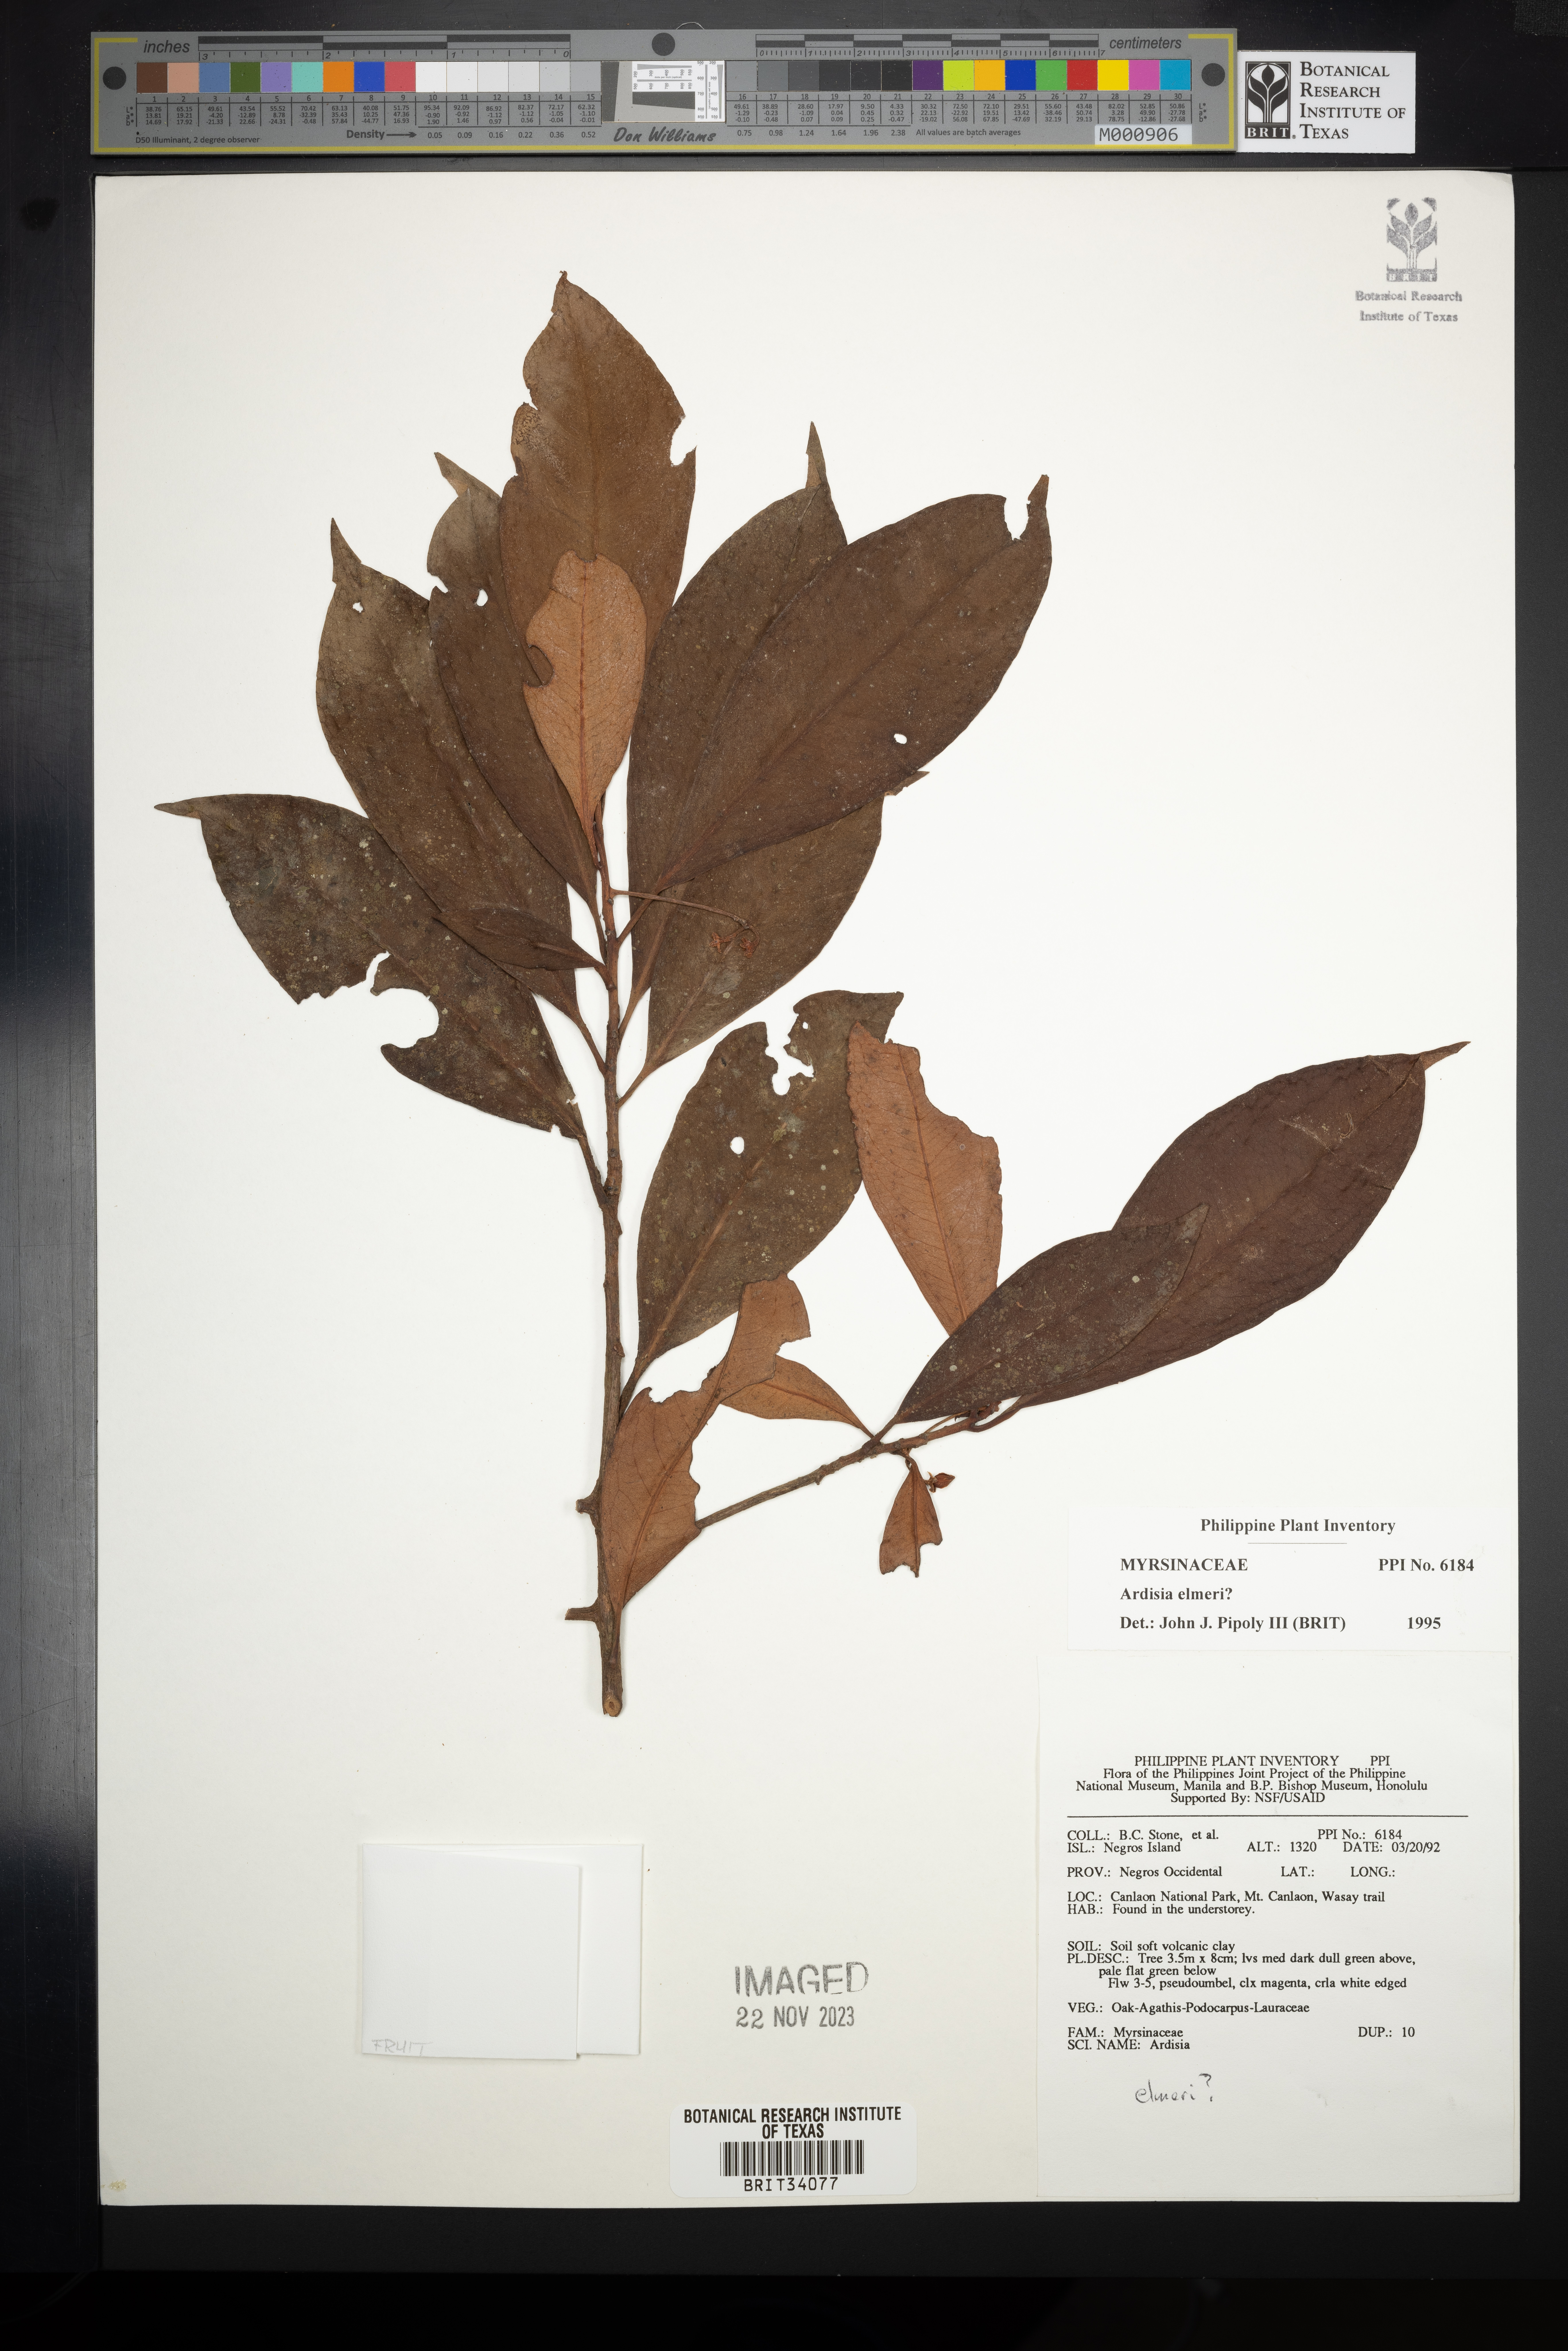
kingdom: Plantae
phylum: Tracheophyta
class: Magnoliopsida
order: Ericales
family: Primulaceae
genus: Ardisia
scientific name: Ardisia elmeri
